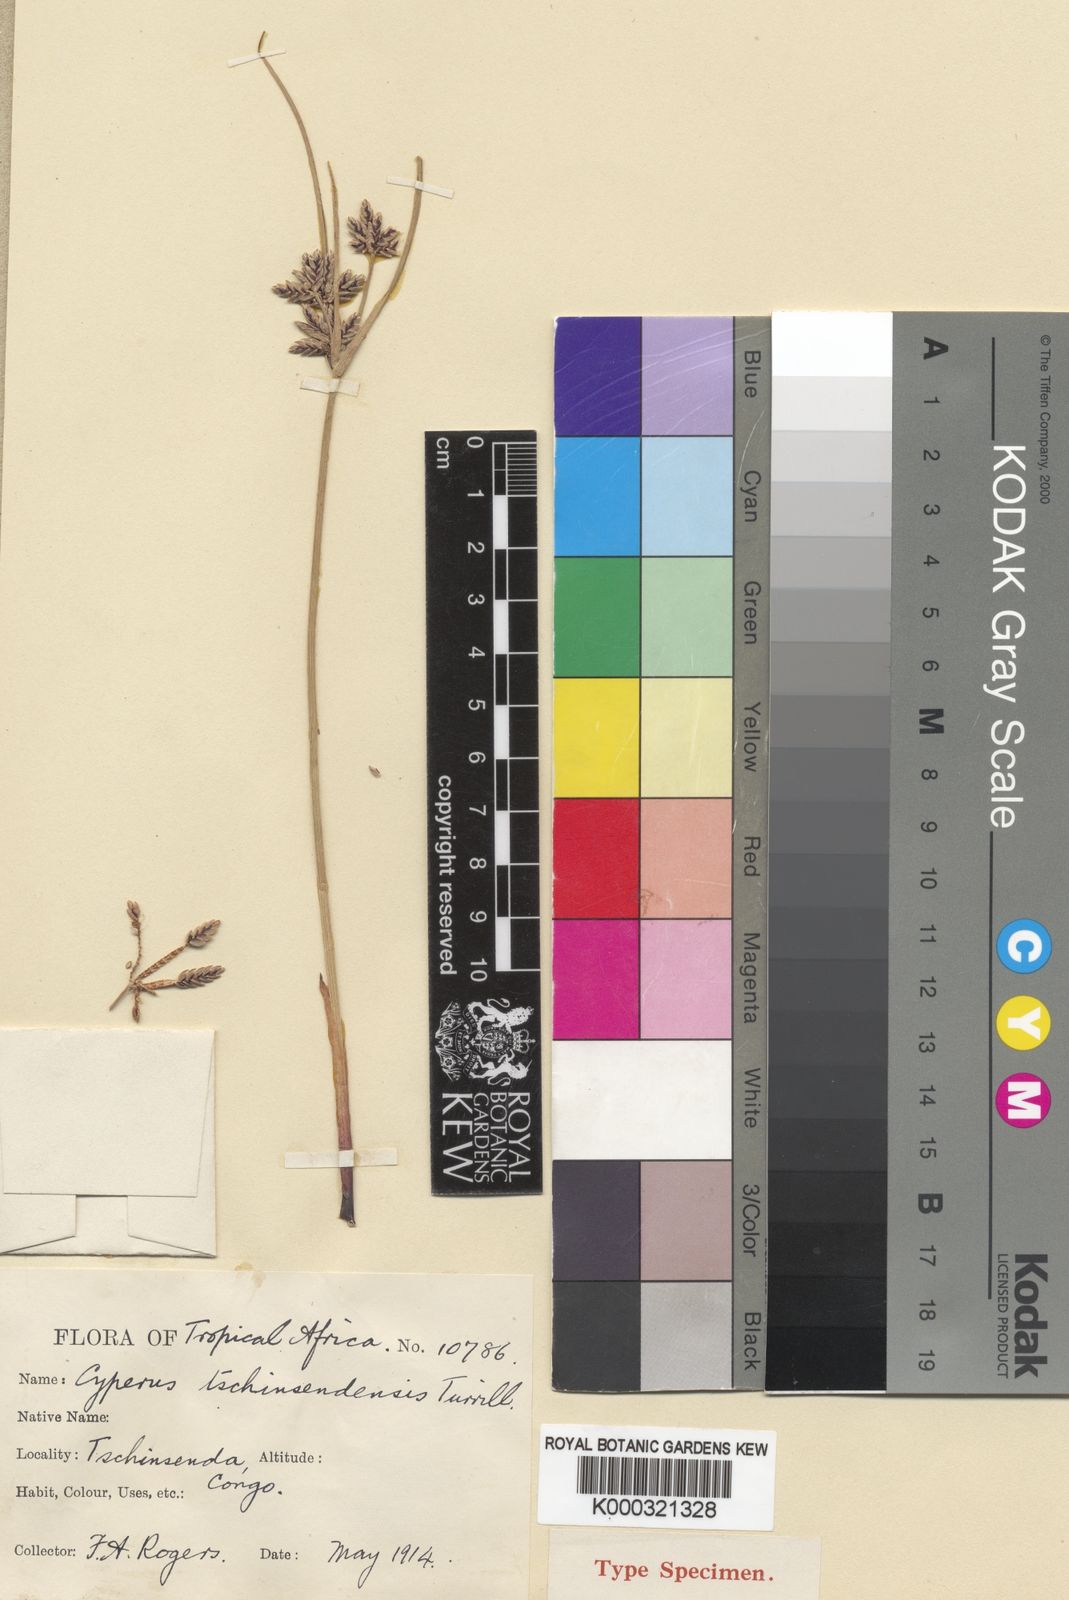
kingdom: Plantae
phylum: Tracheophyta
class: Liliopsida
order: Poales
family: Cyperaceae
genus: Cyperus
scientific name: Cyperus pustulatus
